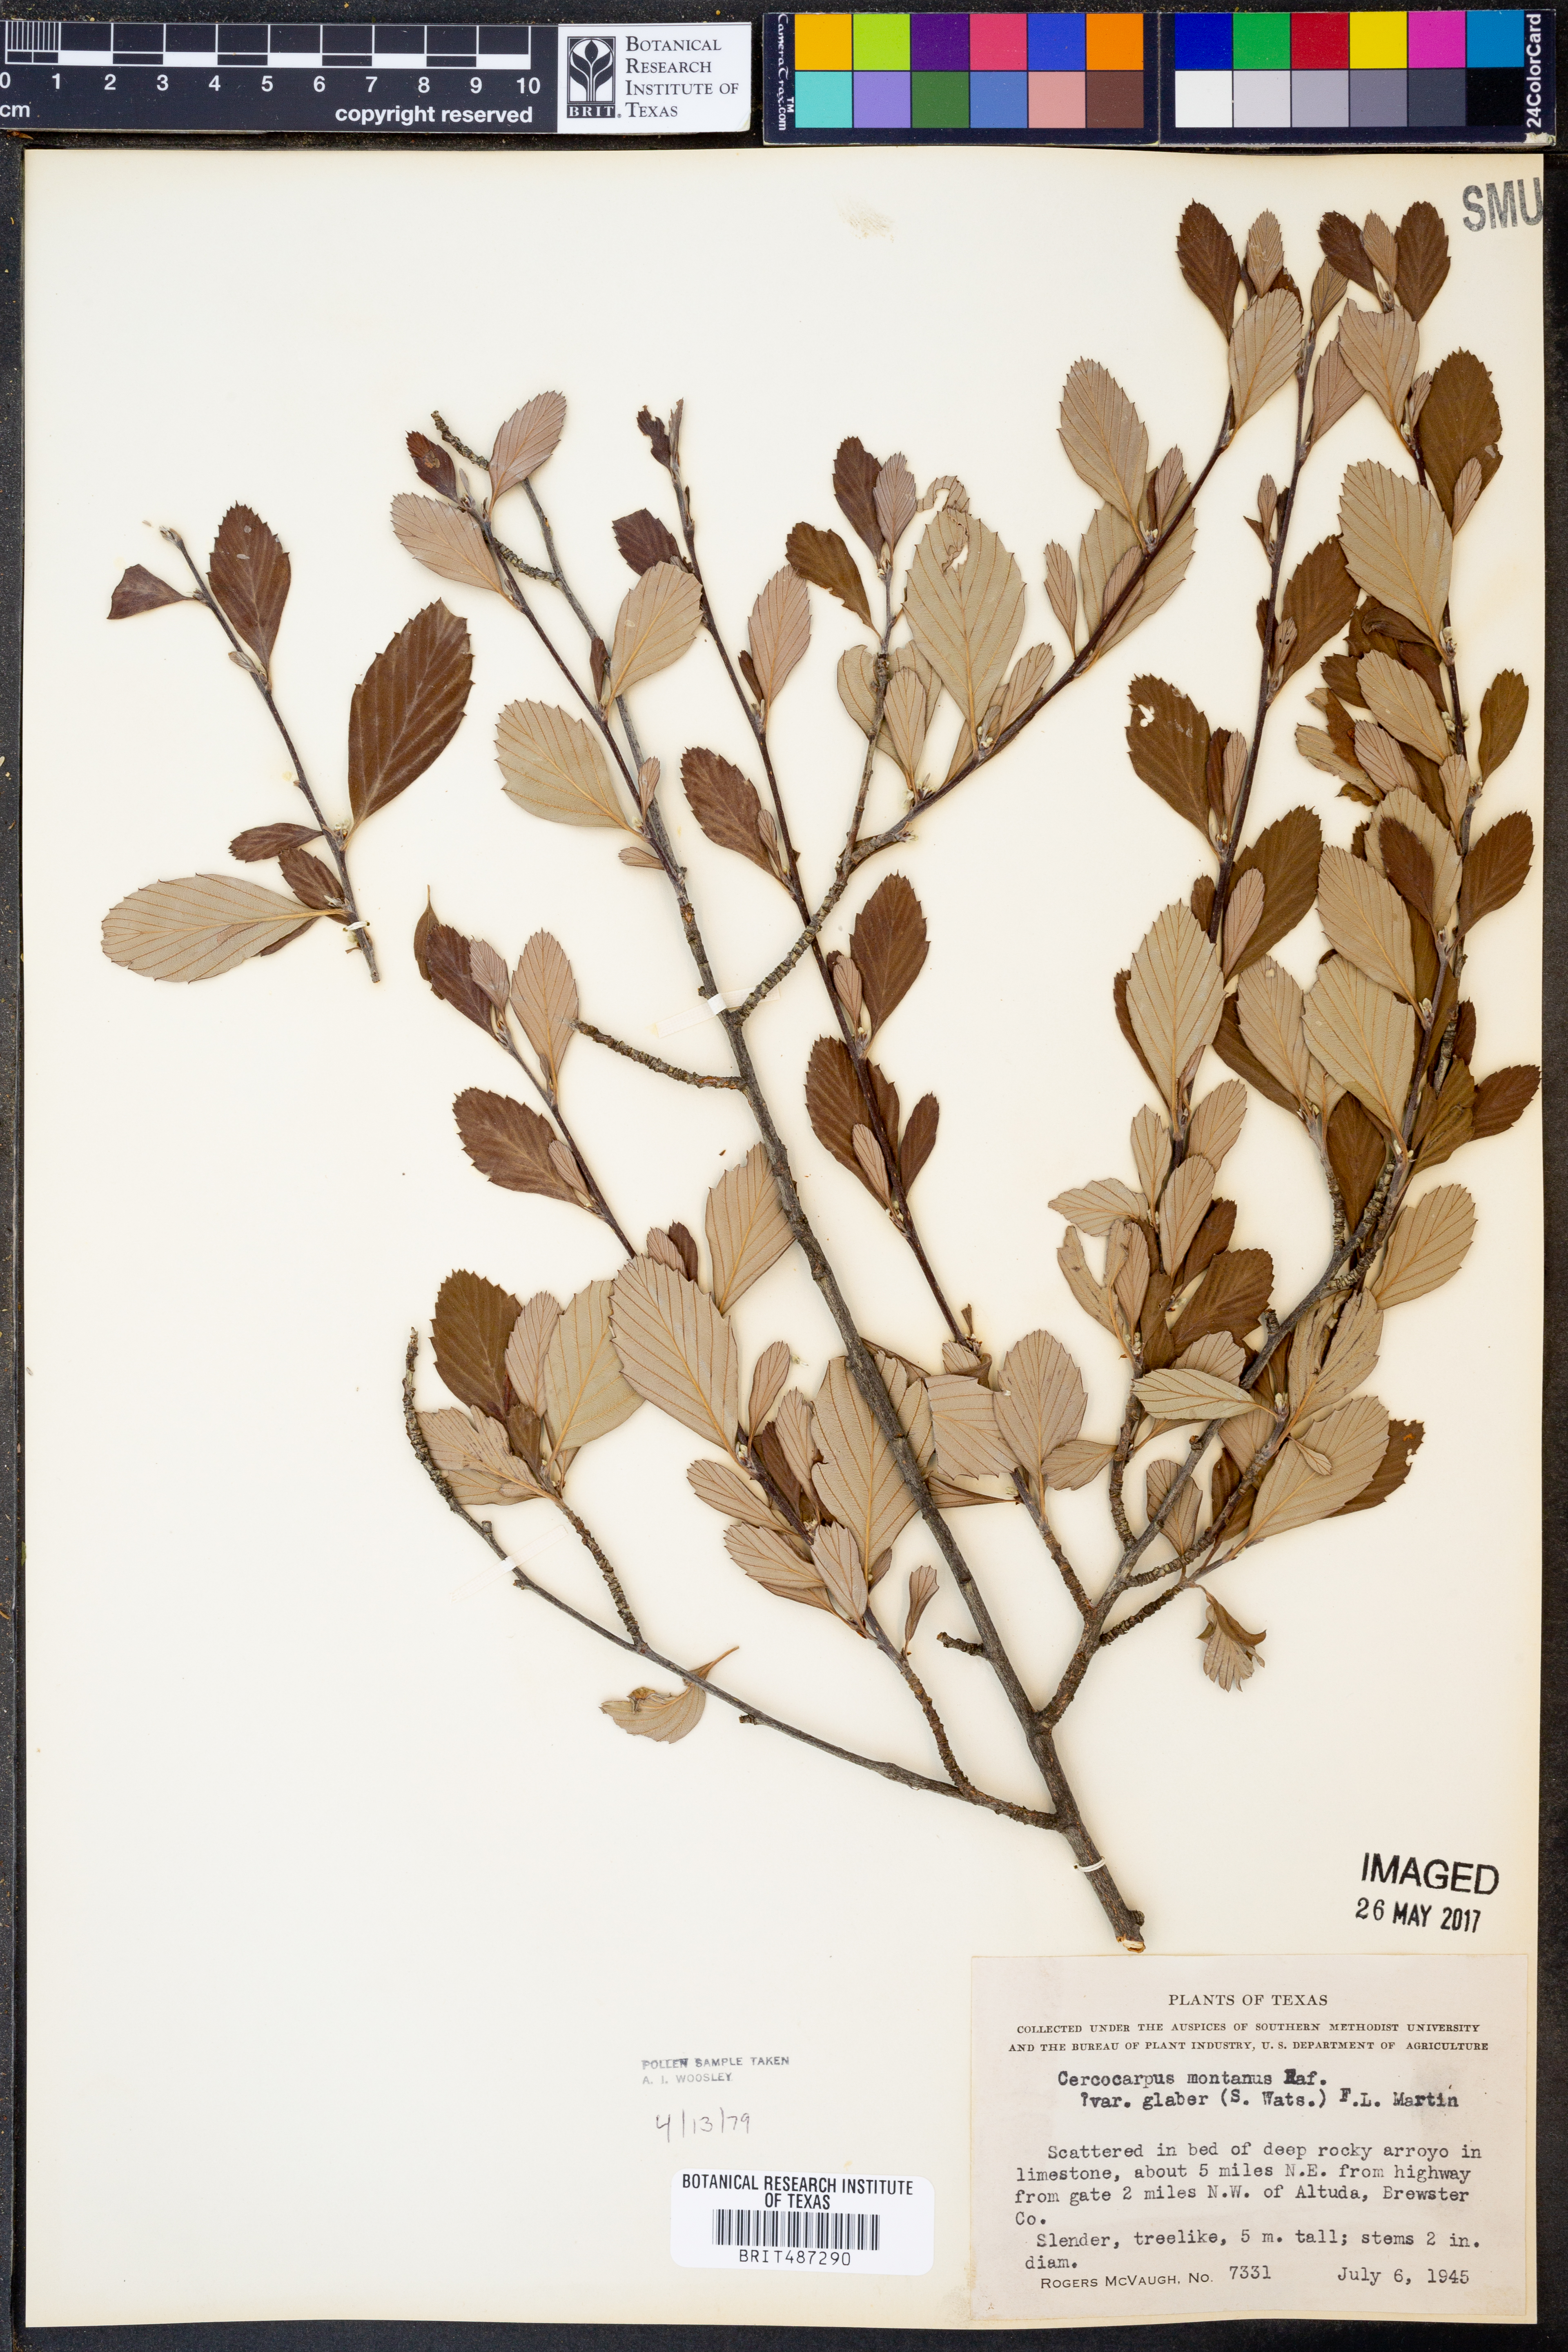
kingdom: Plantae
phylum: Tracheophyta
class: Magnoliopsida
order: Rosales
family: Rosaceae
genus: Cercocarpus
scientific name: Cercocarpus betuloides
